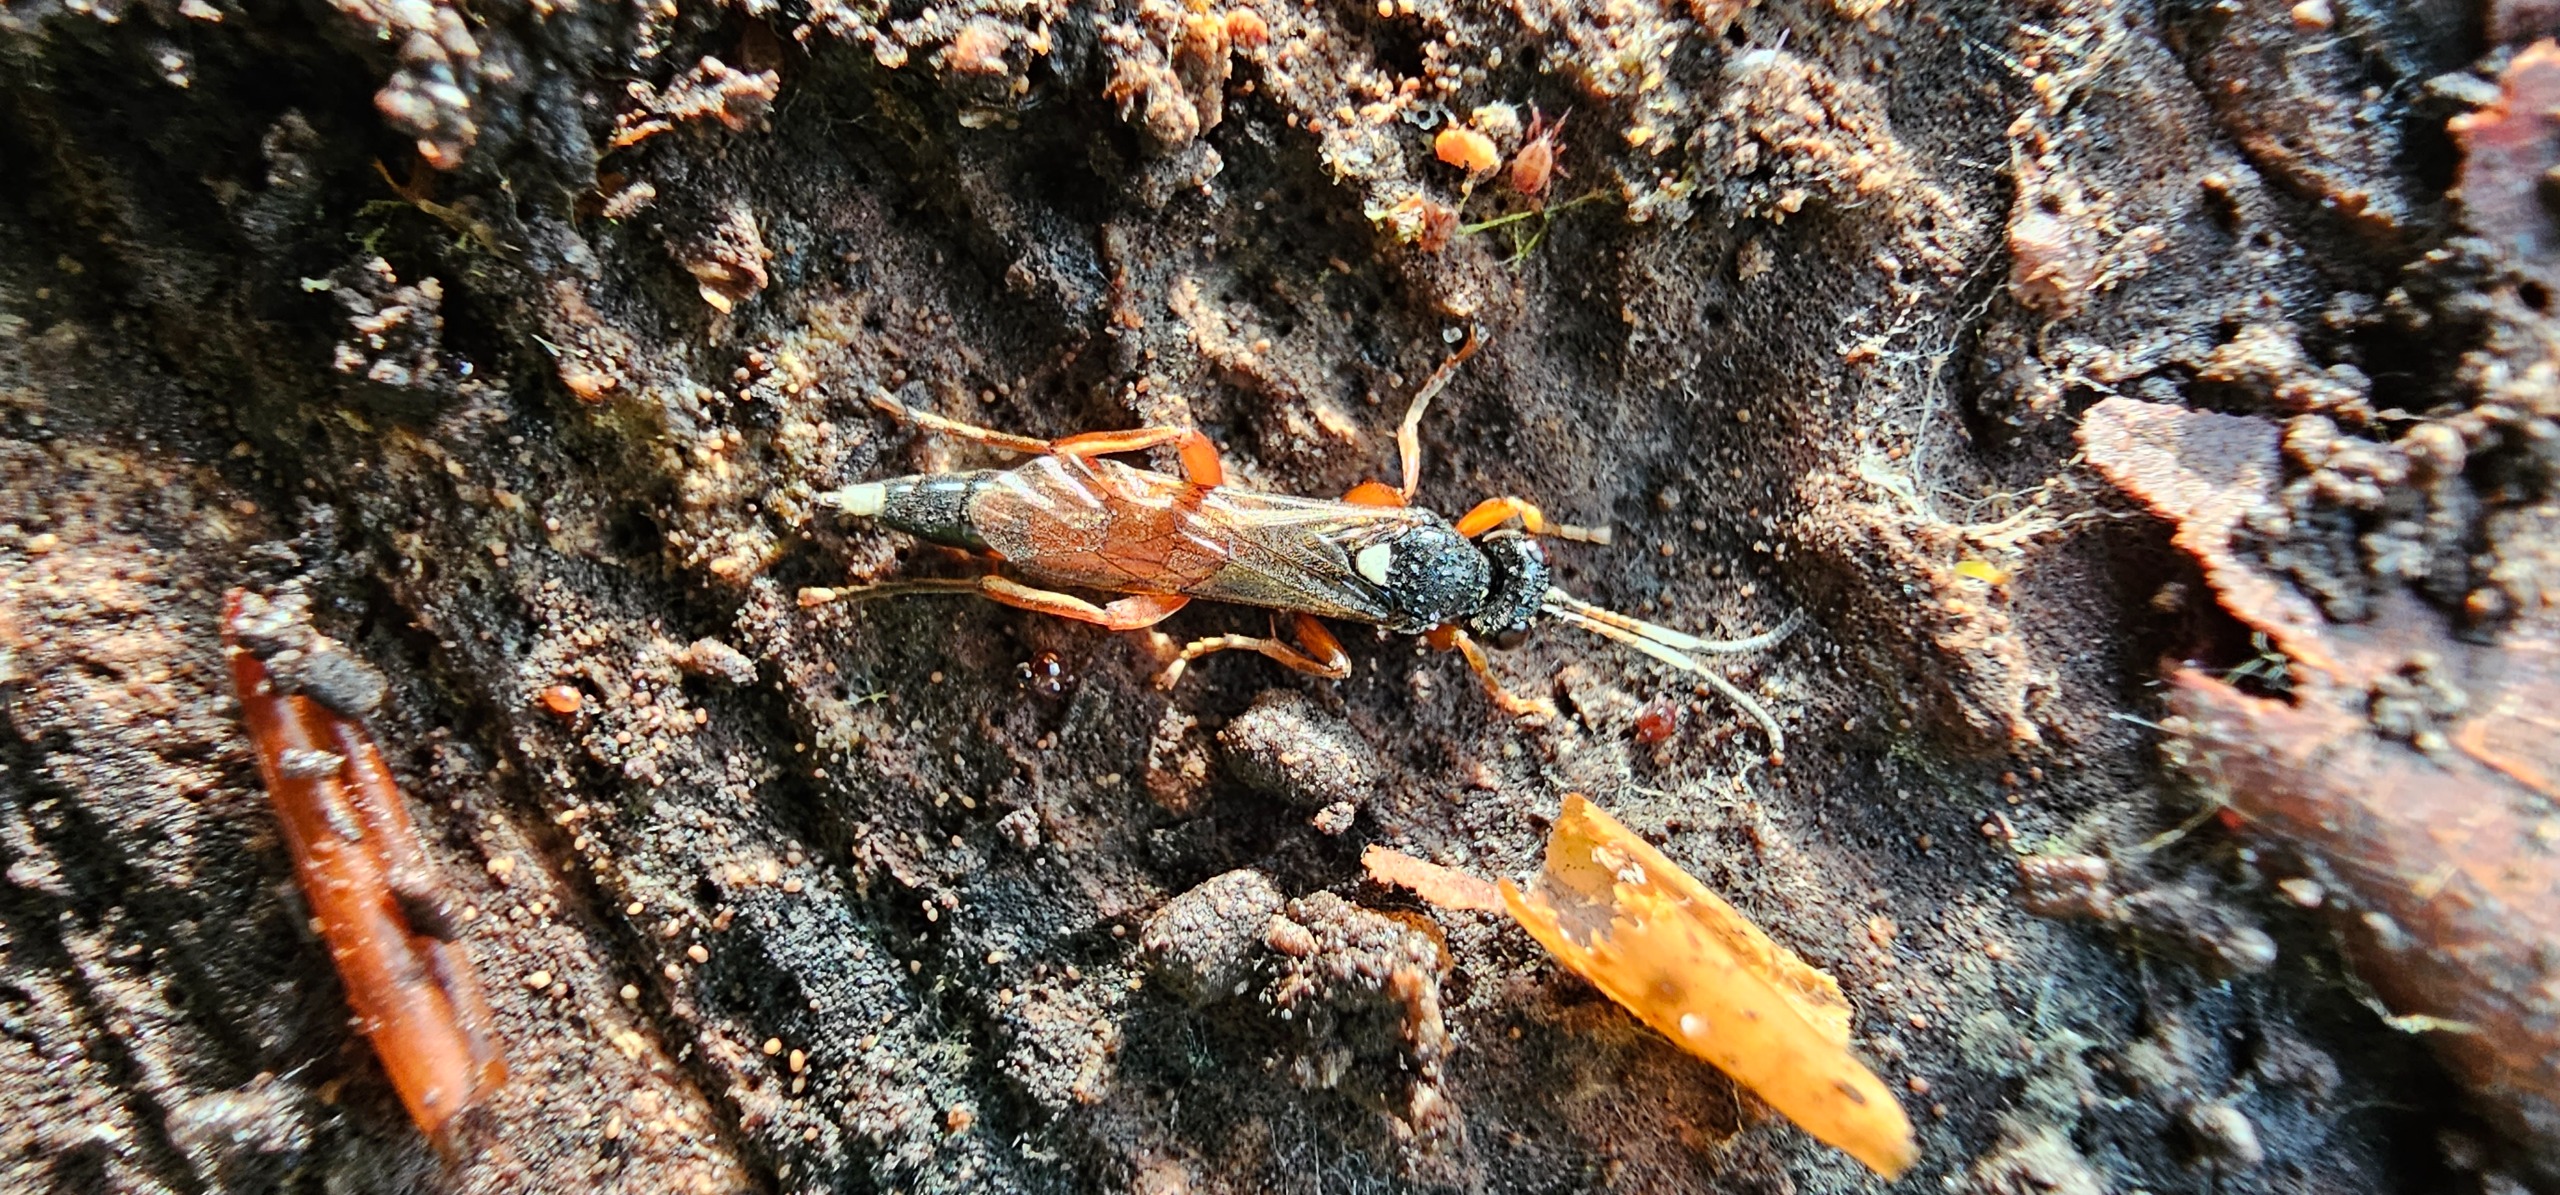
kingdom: Animalia
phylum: Arthropoda
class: Insecta
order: Hymenoptera
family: Ichneumonidae
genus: Chasmias
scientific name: Chasmias motatorius
